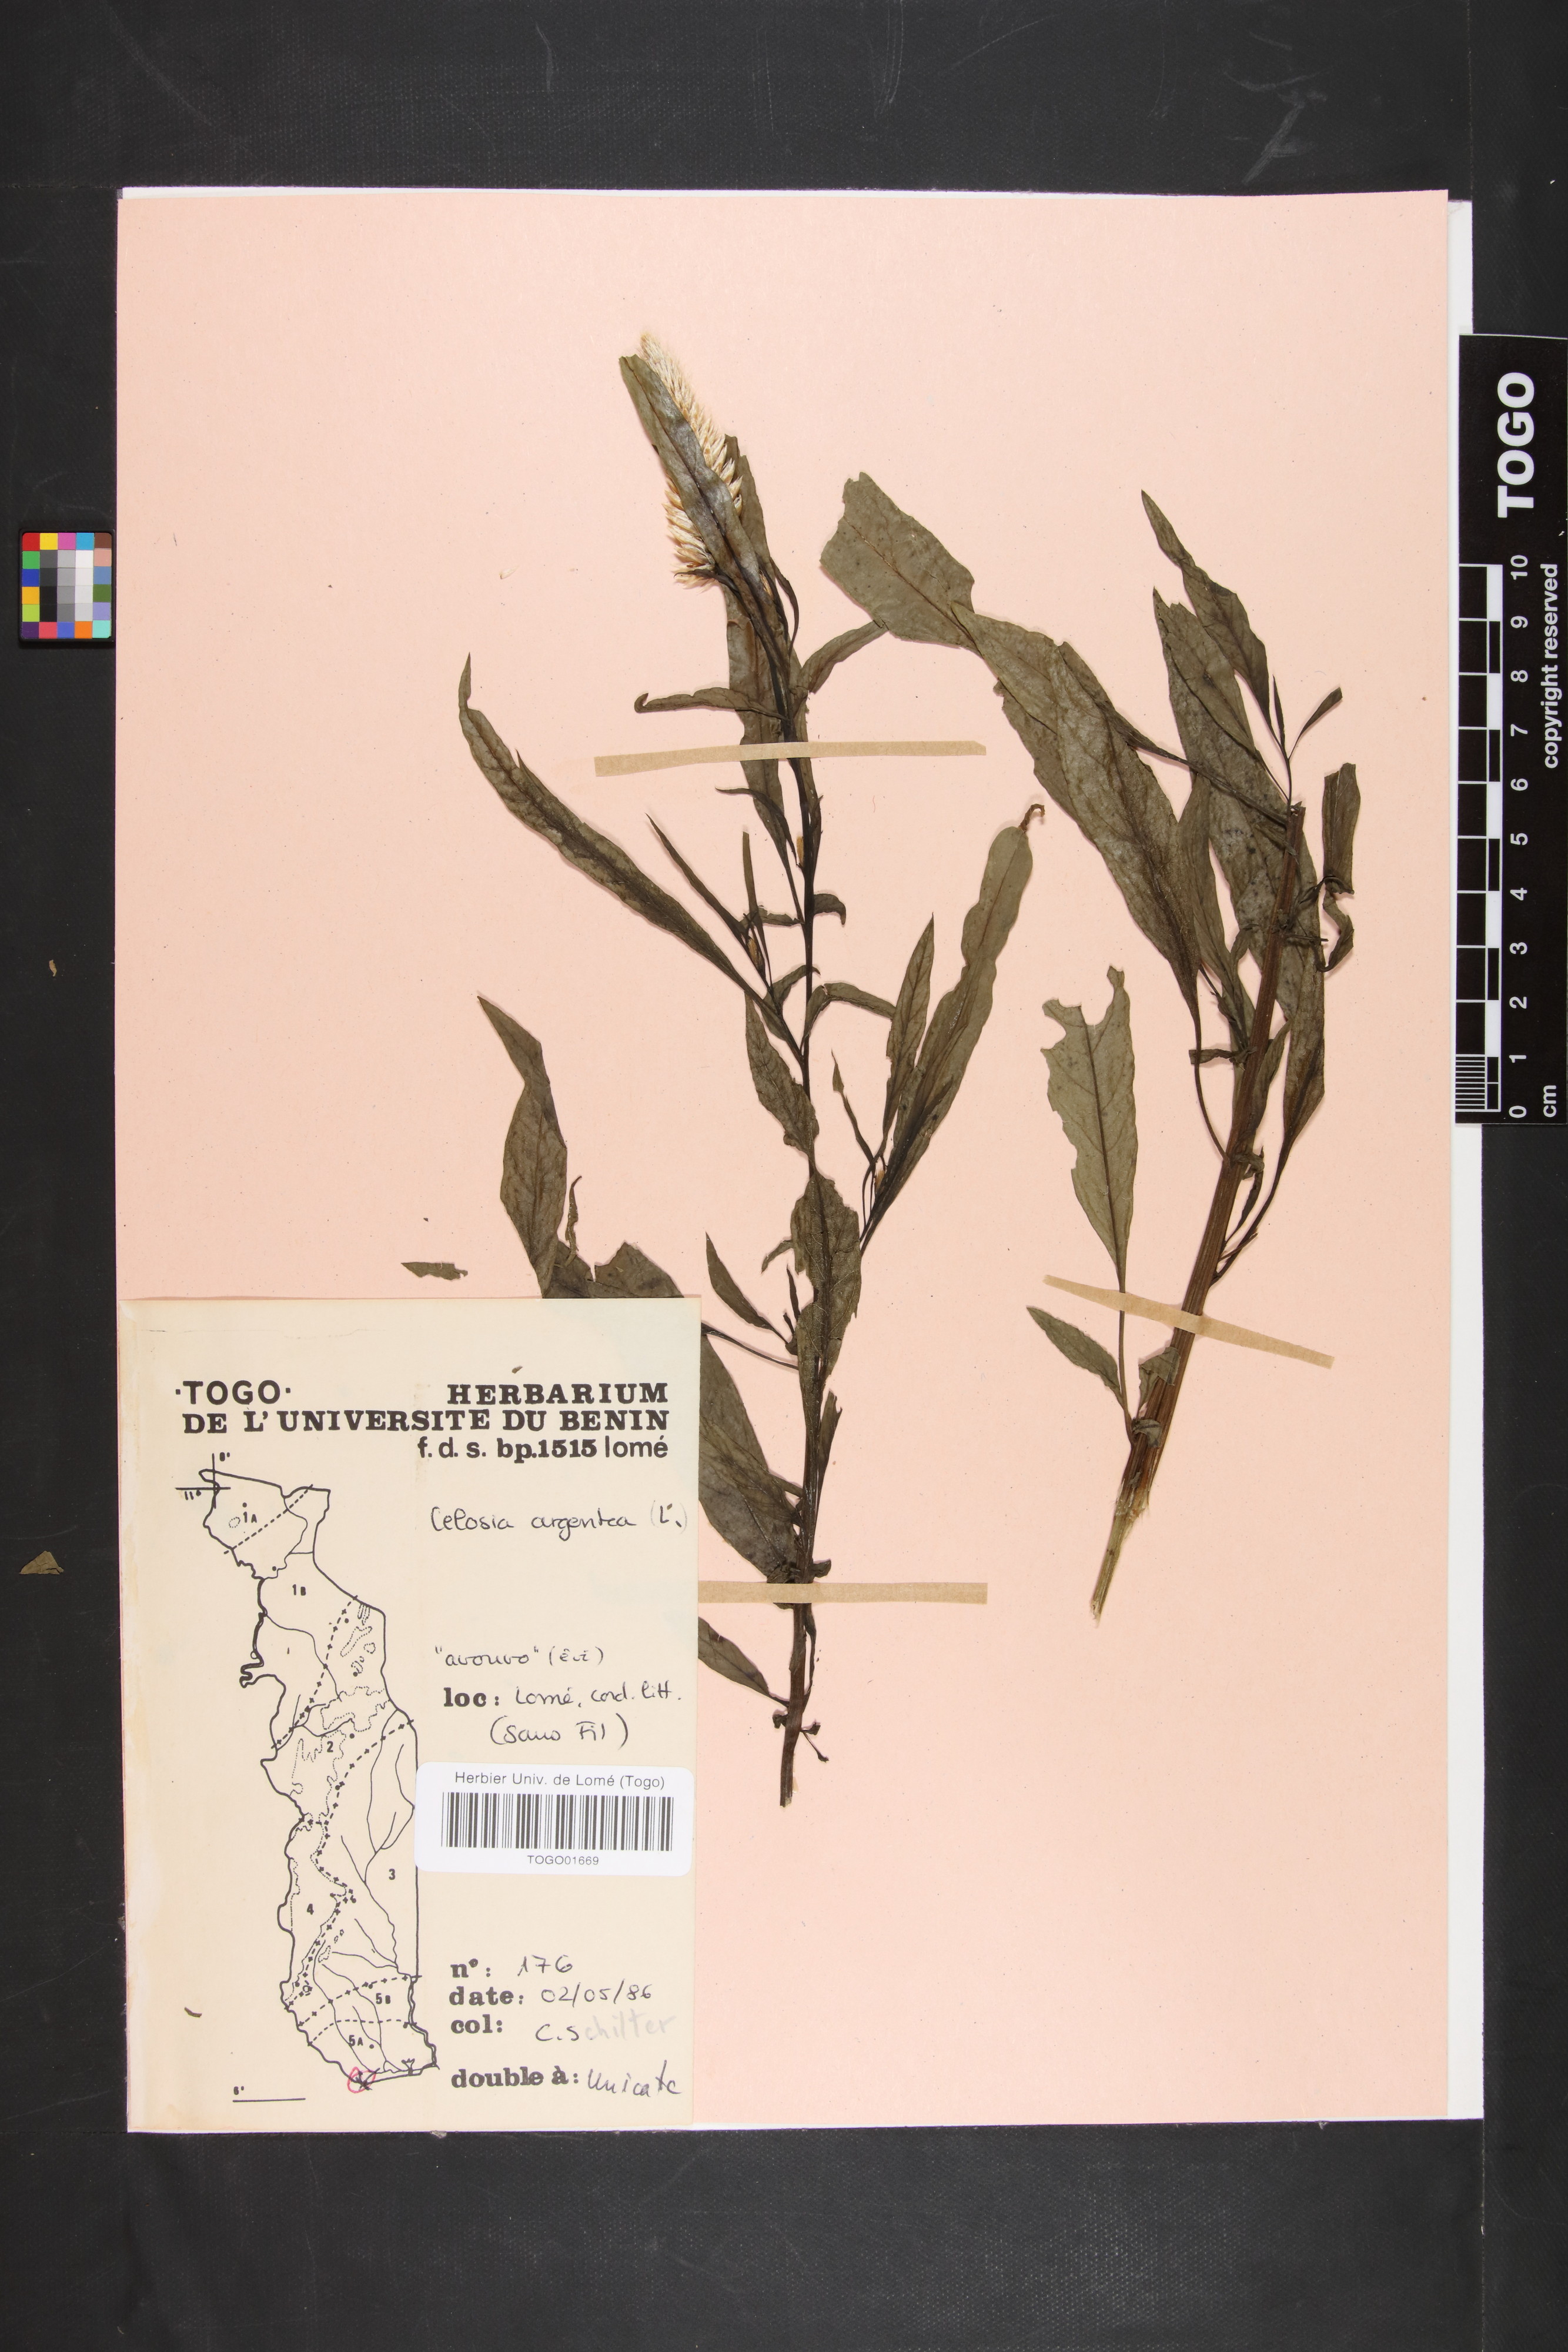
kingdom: Plantae
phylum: Tracheophyta
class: Magnoliopsida
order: Caryophyllales
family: Amaranthaceae
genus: Celosia
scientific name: Celosia argentea
